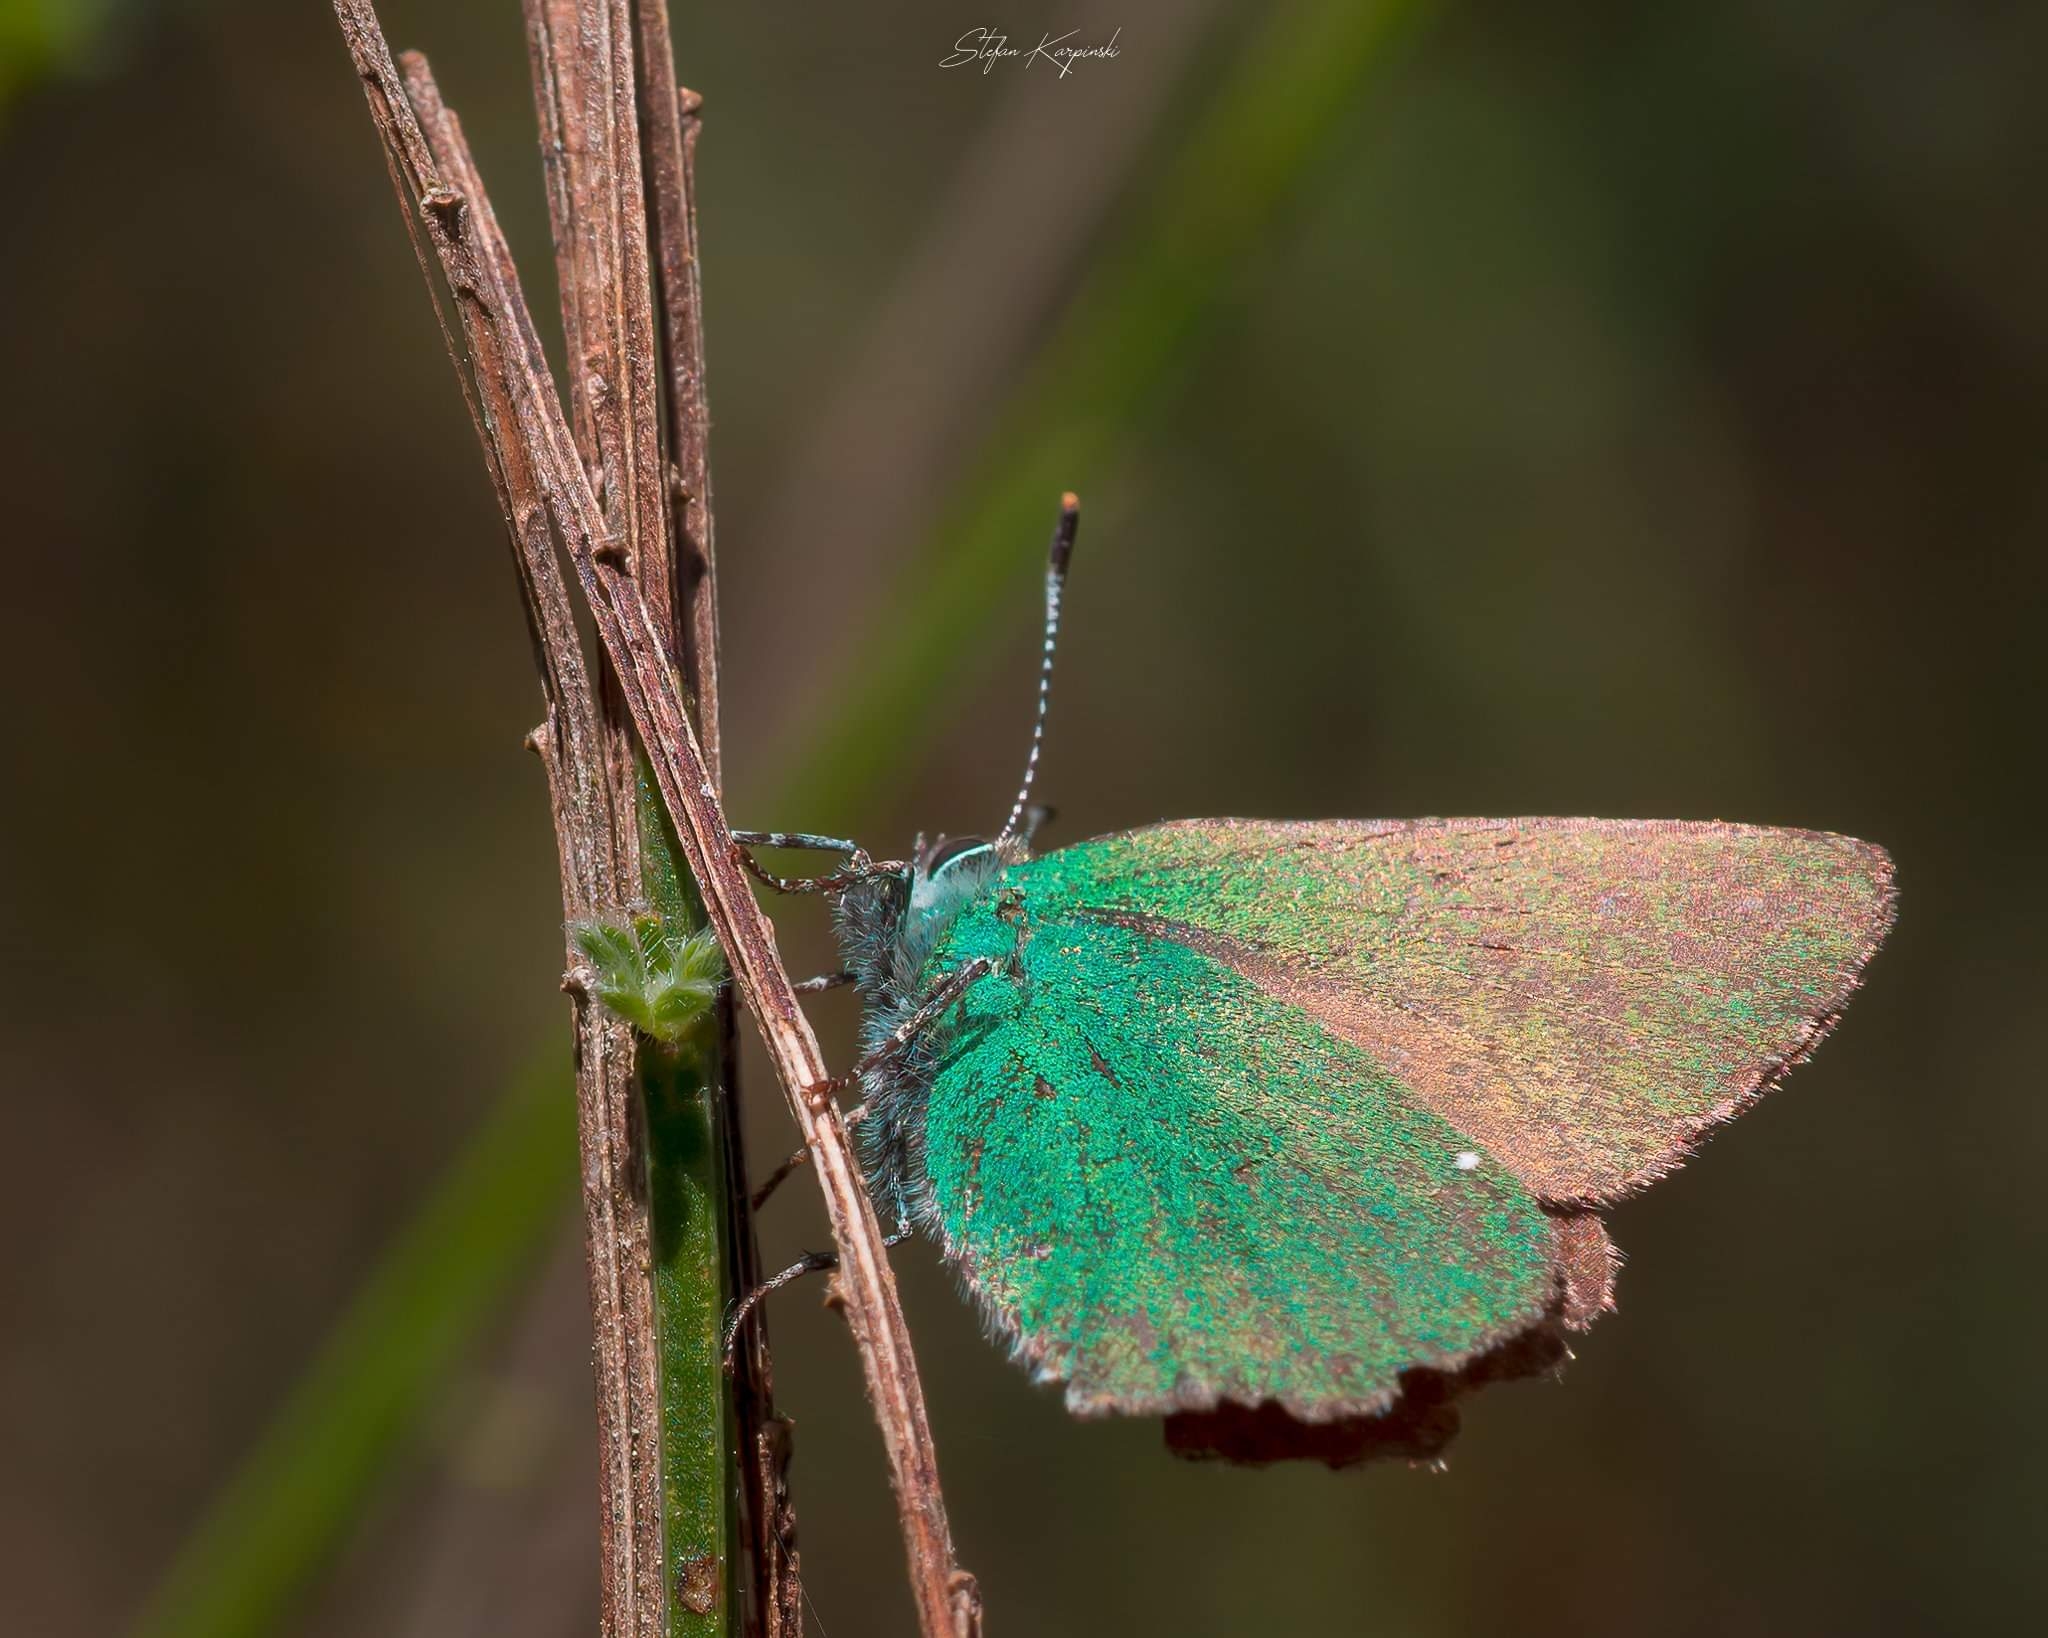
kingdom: Animalia
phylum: Arthropoda
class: Insecta
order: Lepidoptera
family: Lycaenidae
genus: Callophrys
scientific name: Callophrys rubi
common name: Grøn busksommerfugl
